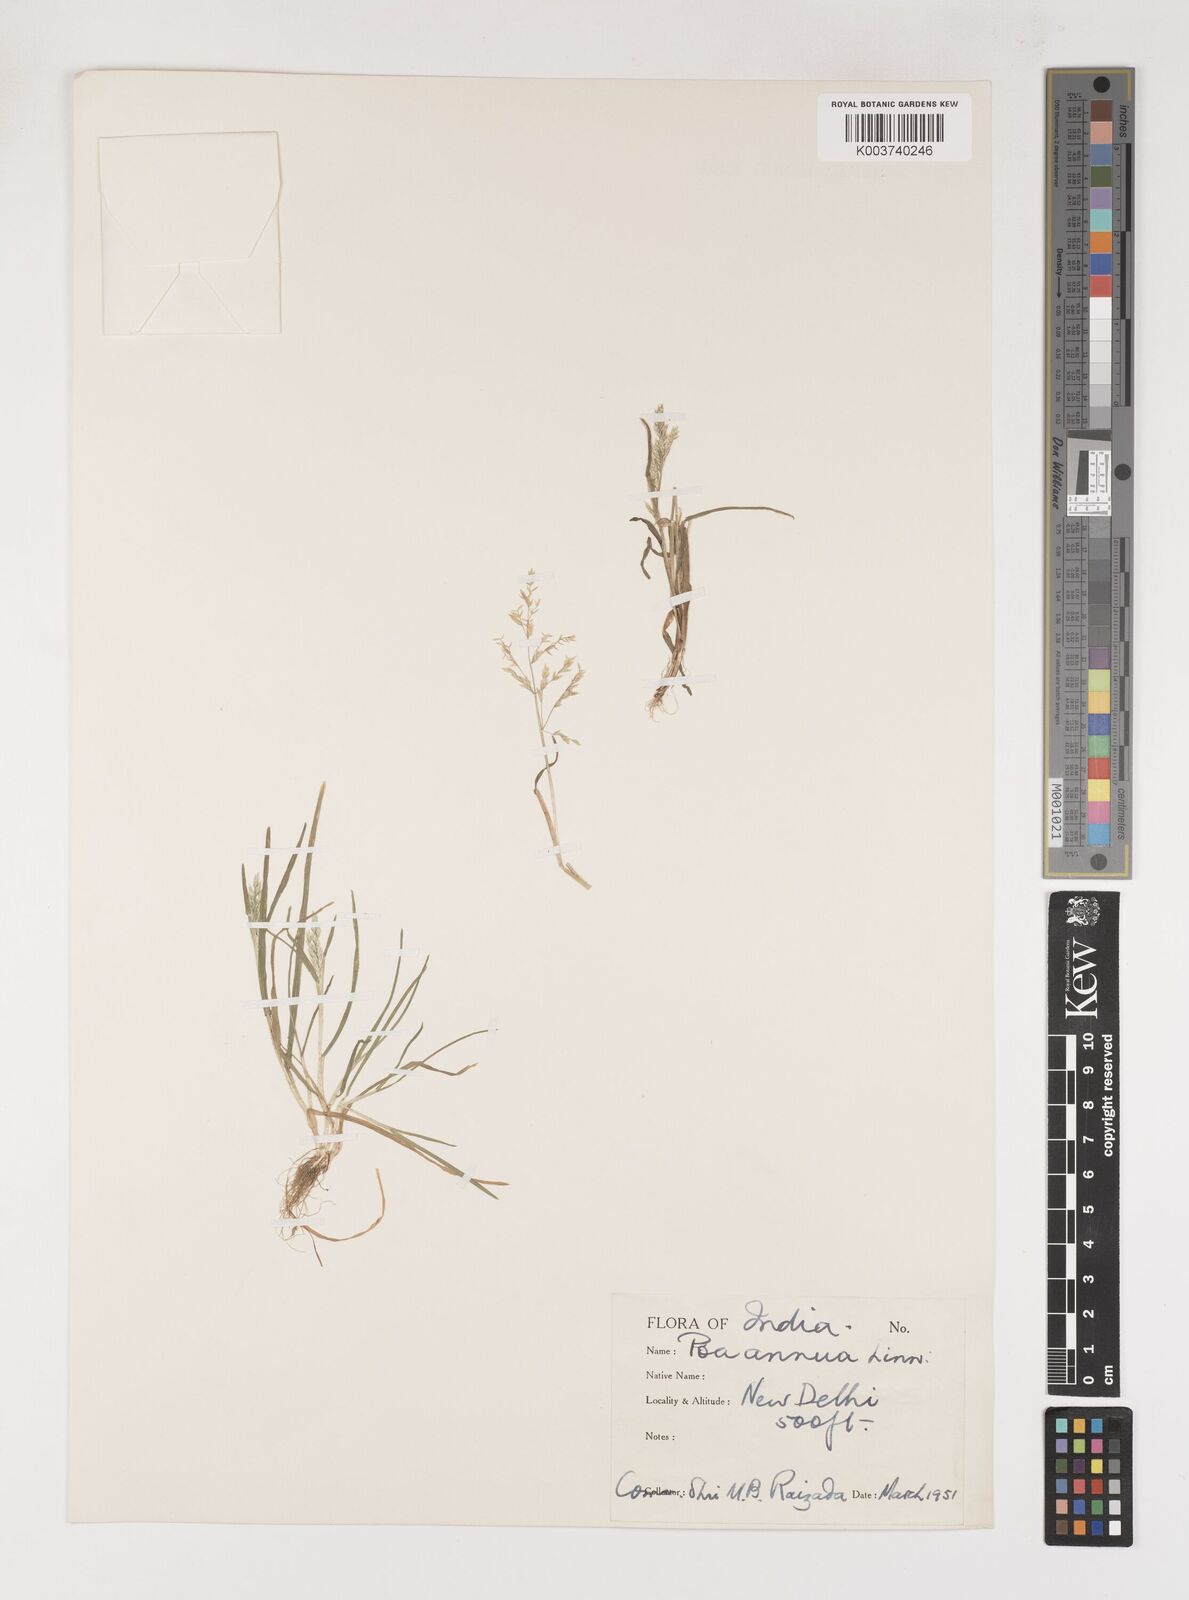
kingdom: Plantae
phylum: Tracheophyta
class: Liliopsida
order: Poales
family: Poaceae
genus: Poa
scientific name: Poa annua
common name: Annual bluegrass
